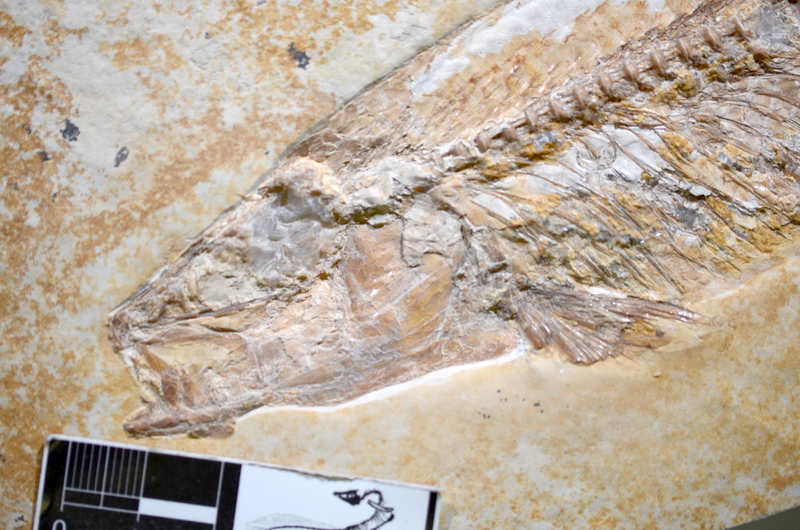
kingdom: Animalia
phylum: Chordata
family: Allothrissopidae
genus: Allothrissops
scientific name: Allothrissops salmoneus
